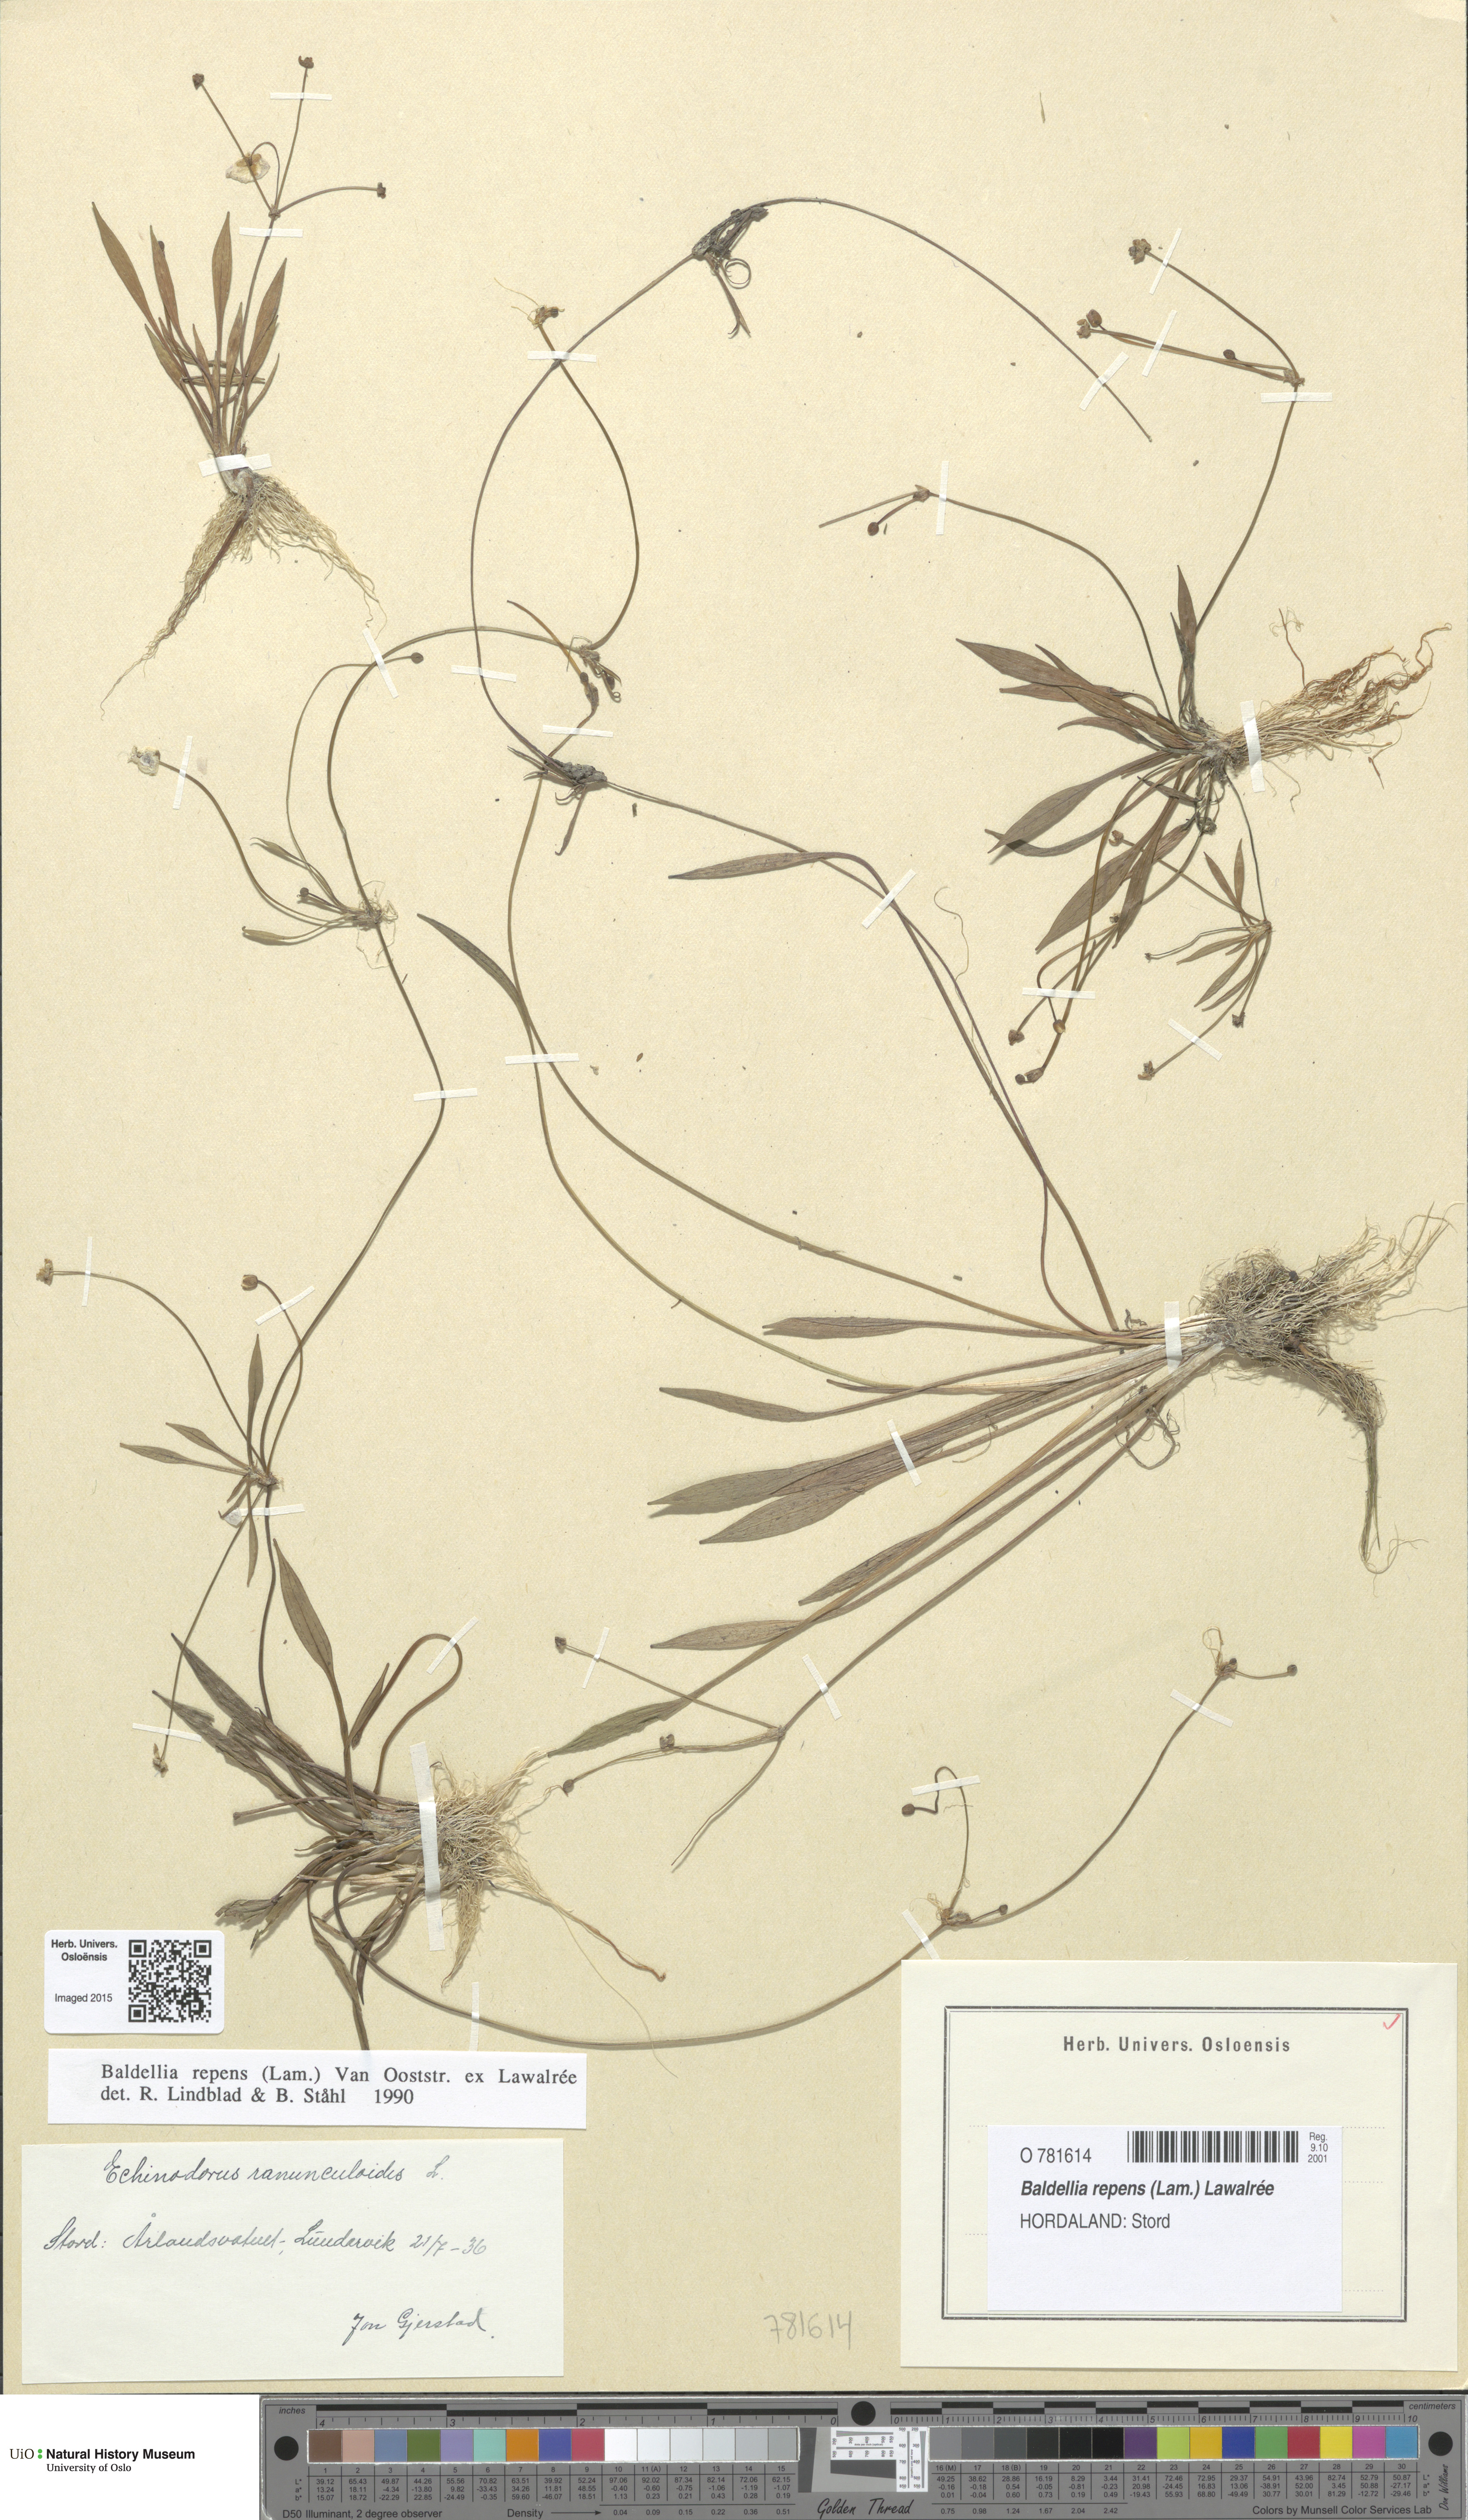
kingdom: Plantae
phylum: Tracheophyta
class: Liliopsida
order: Alismatales
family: Alismataceae
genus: Baldellia
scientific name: Baldellia repens
